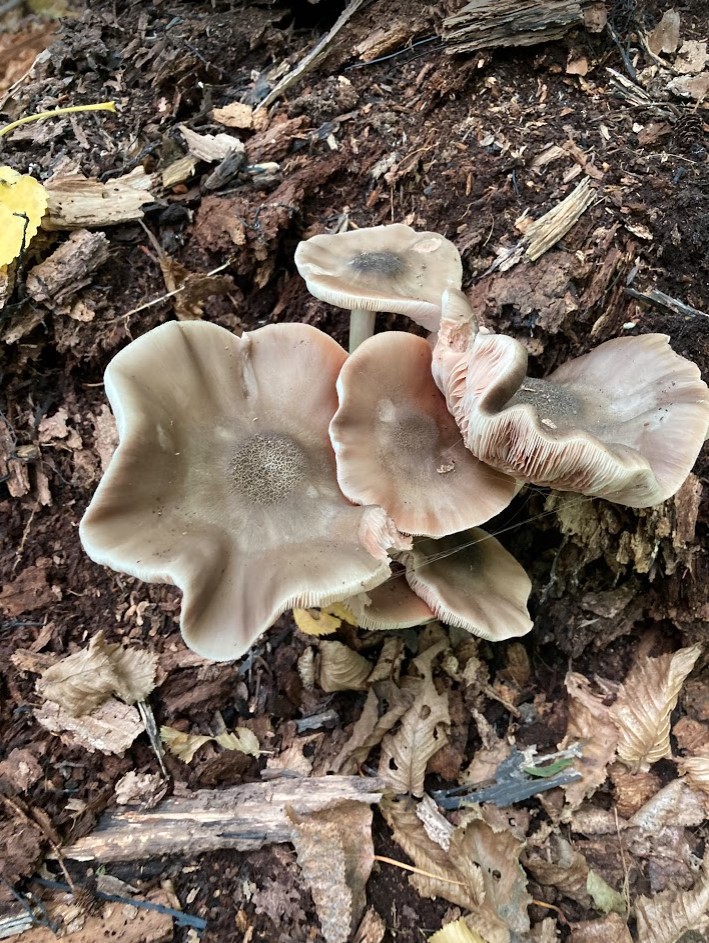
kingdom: Fungi
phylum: Basidiomycota
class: Agaricomycetes
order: Agaricales
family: Pluteaceae
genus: Pluteus
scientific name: Pluteus salicinus
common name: stiv skærmhat
